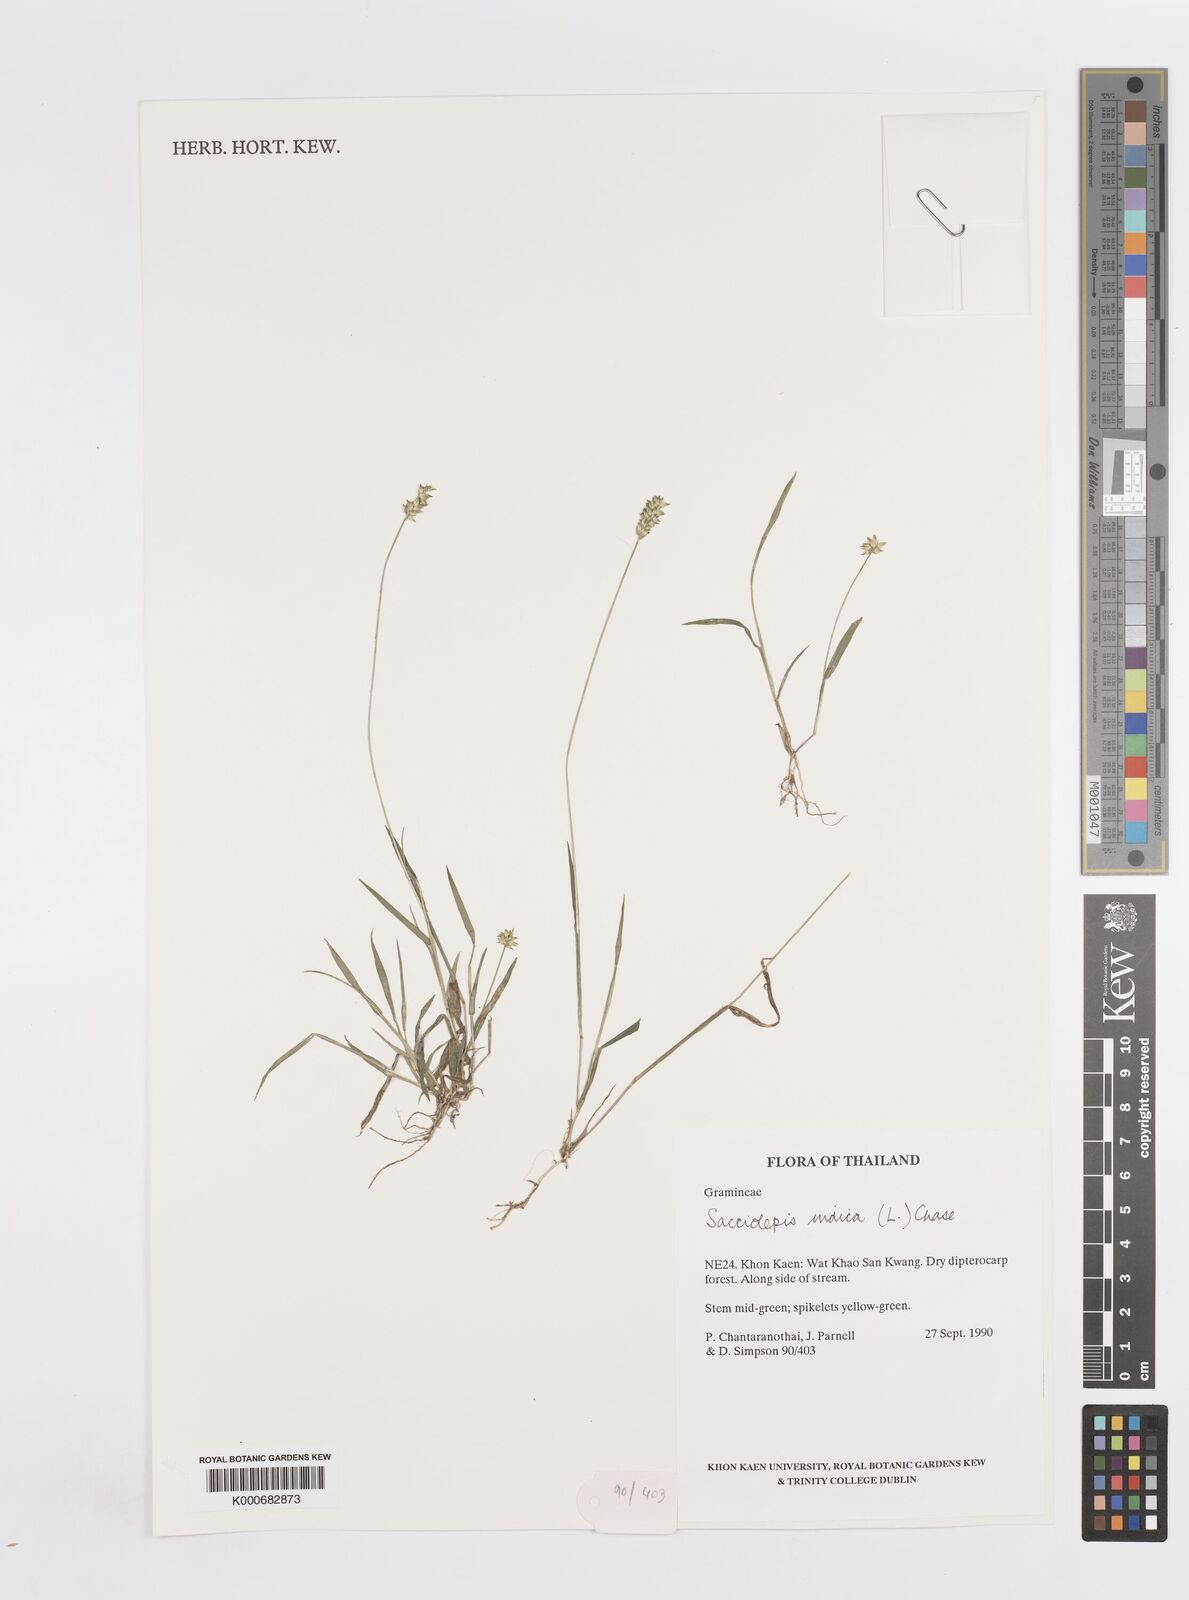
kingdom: Plantae
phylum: Tracheophyta
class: Liliopsida
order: Poales
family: Poaceae
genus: Sacciolepis
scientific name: Sacciolepis indica
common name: Glenwoodgrass
